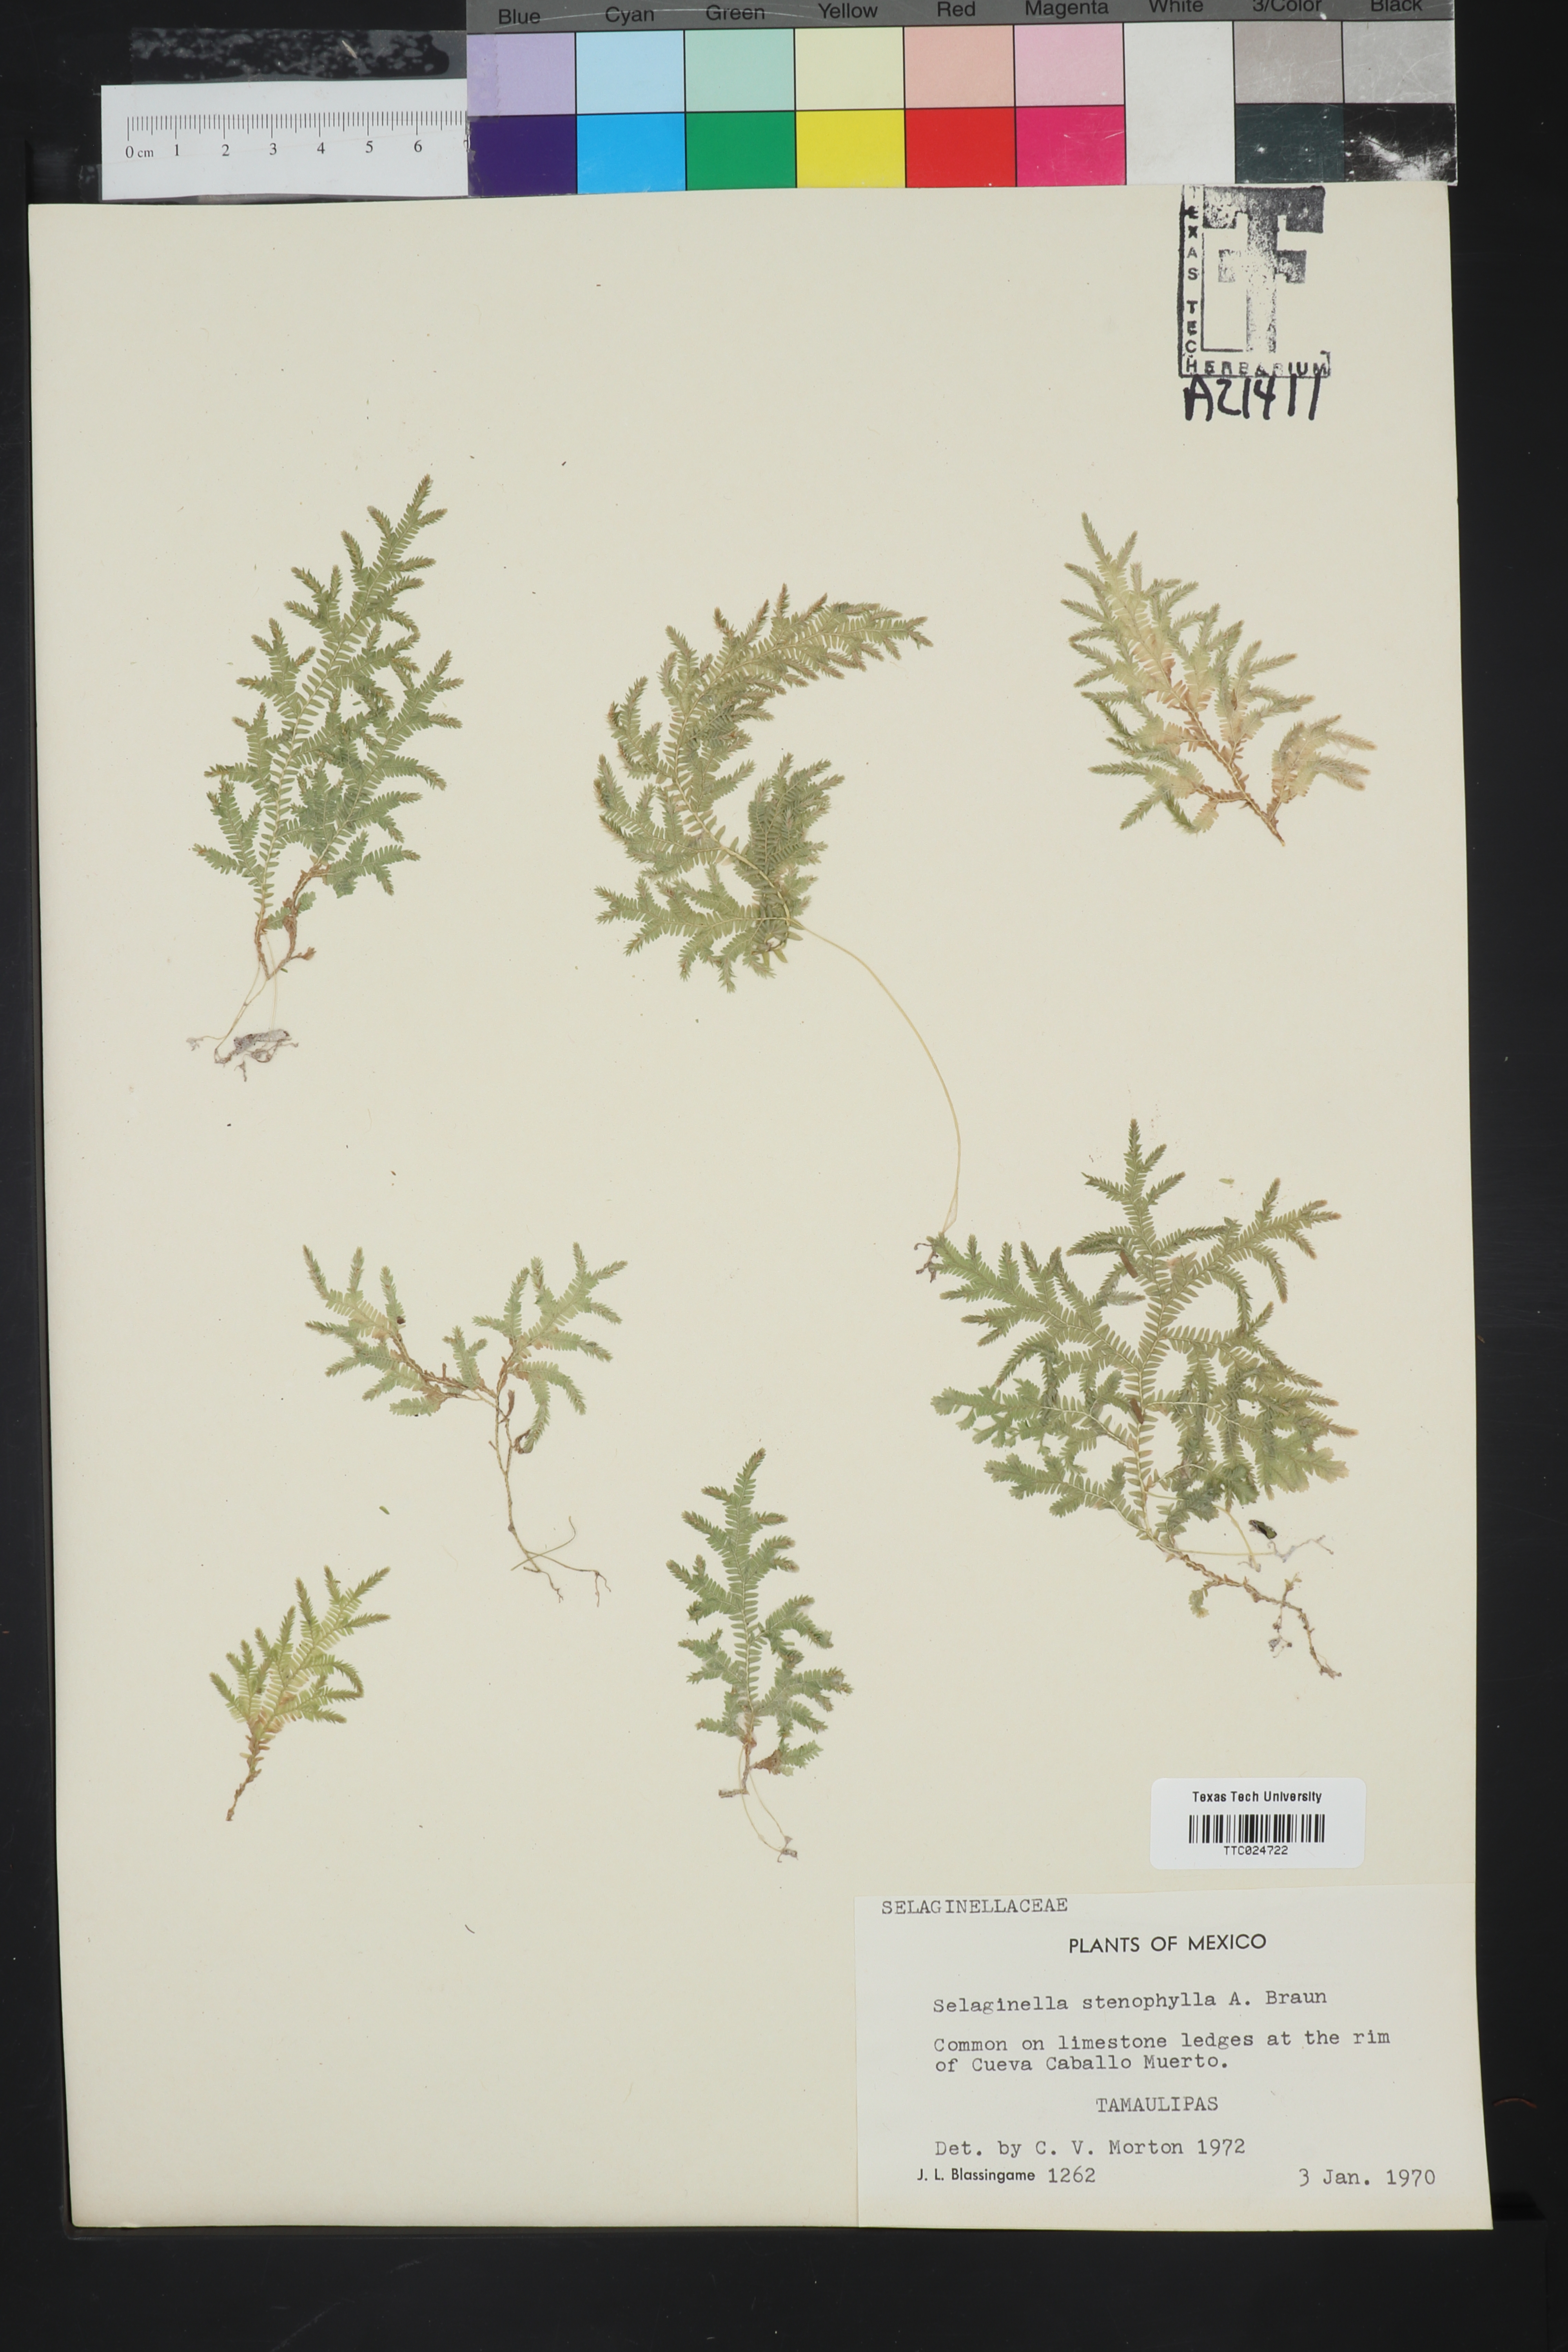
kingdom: Plantae
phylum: Tracheophyta
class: Lycopodiopsida
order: Selaginellales
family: Selaginellaceae
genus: Selaginella
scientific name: Selaginella stenophylla
